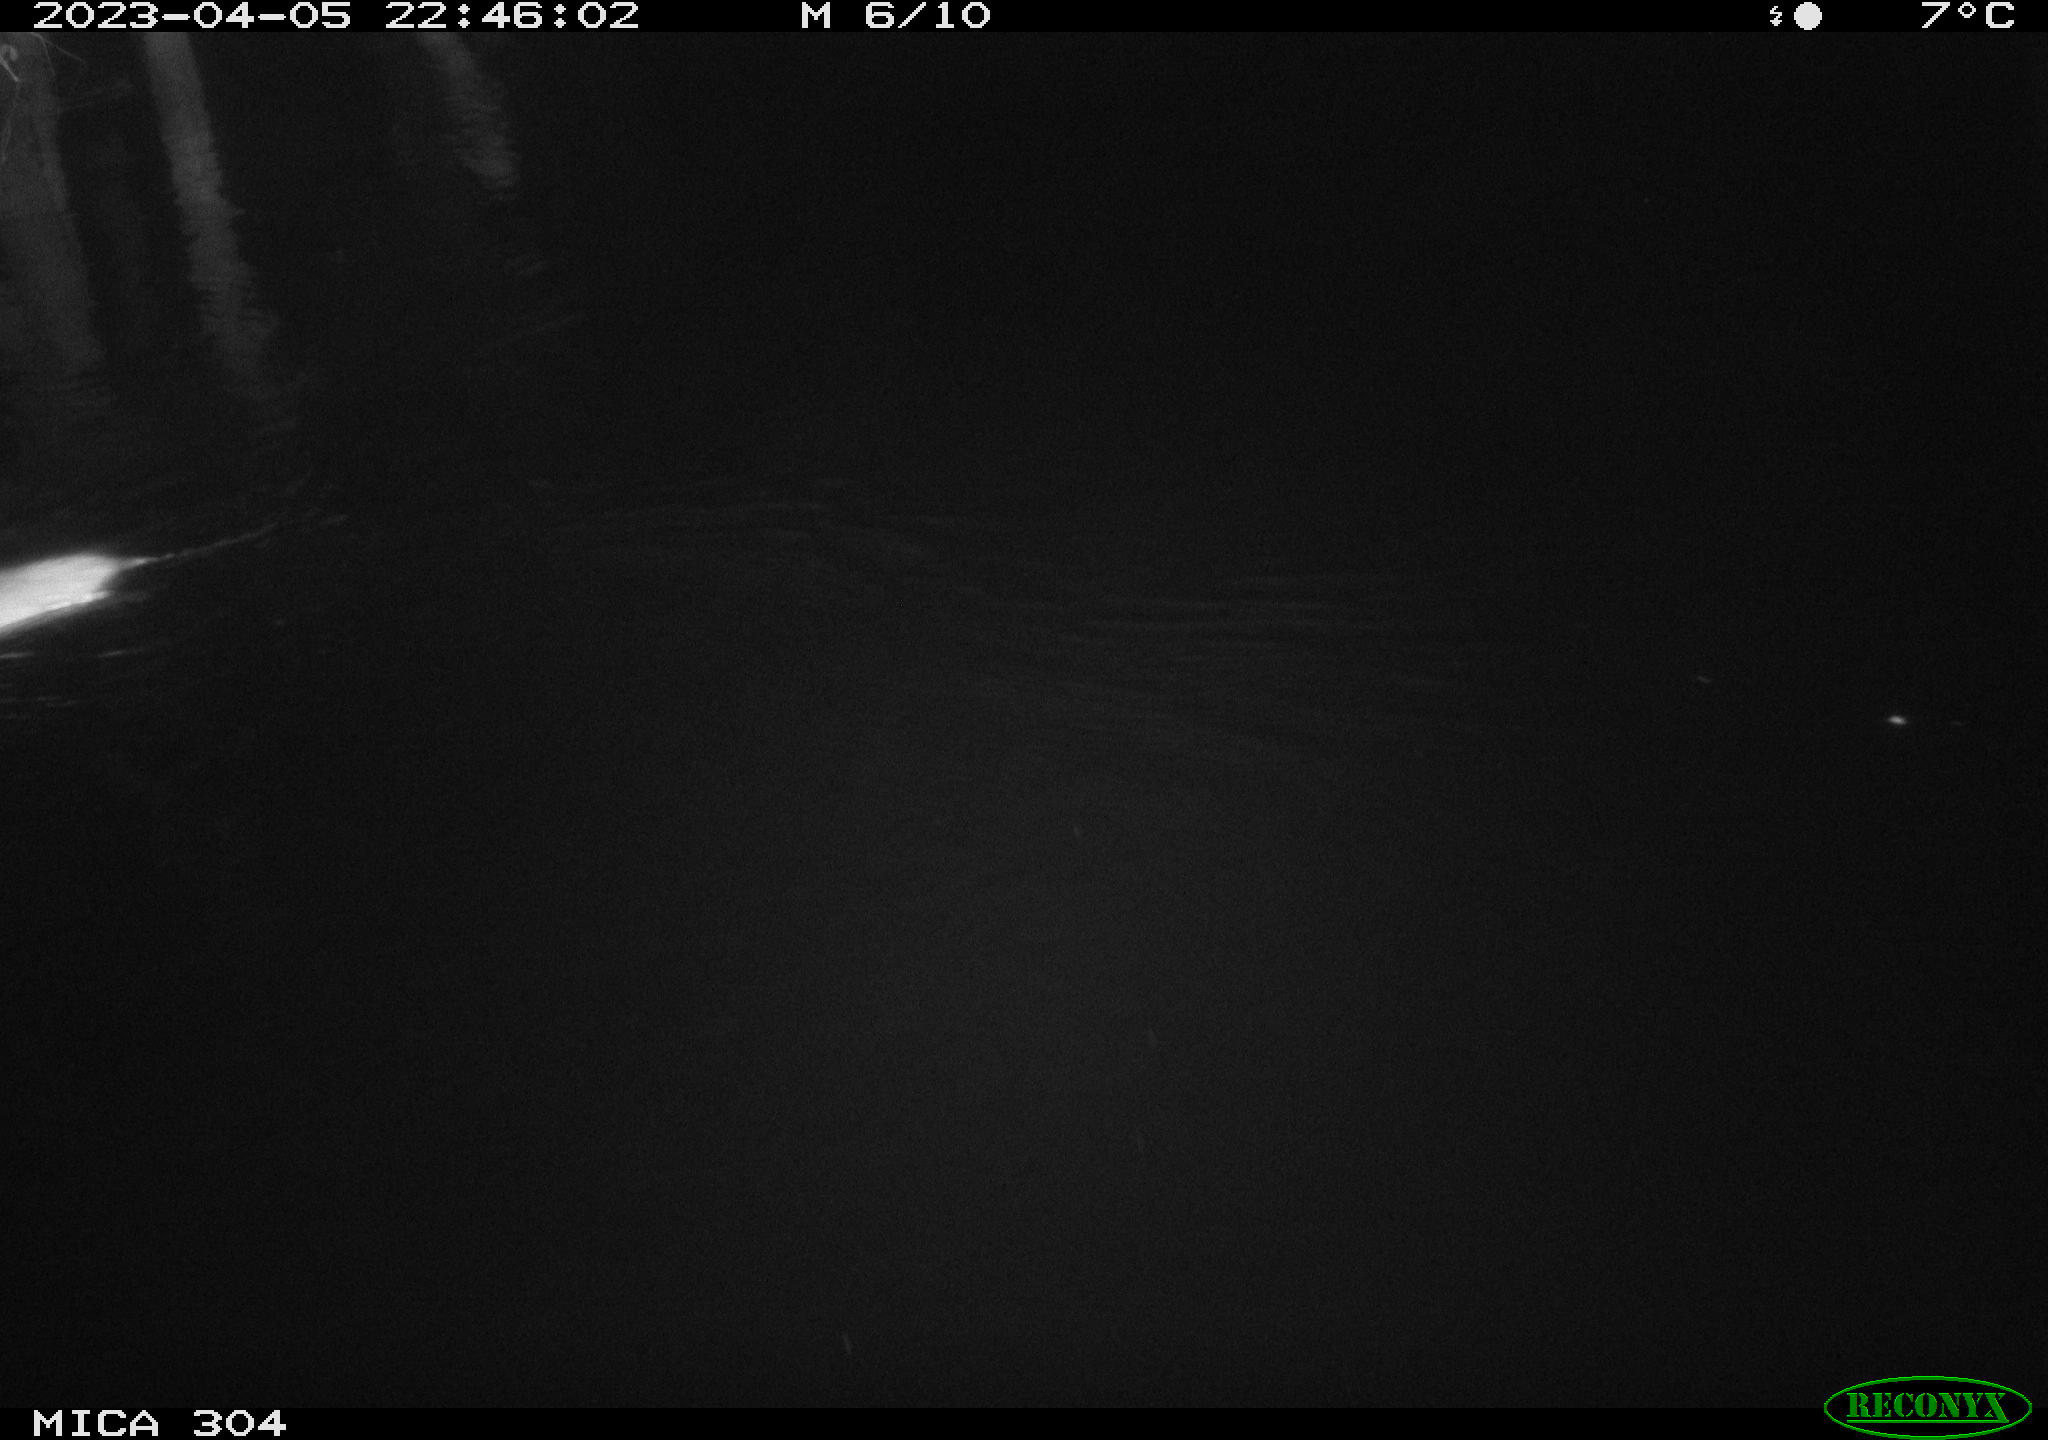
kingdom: Animalia
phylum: Chordata
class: Mammalia
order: Rodentia
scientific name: Rodentia
